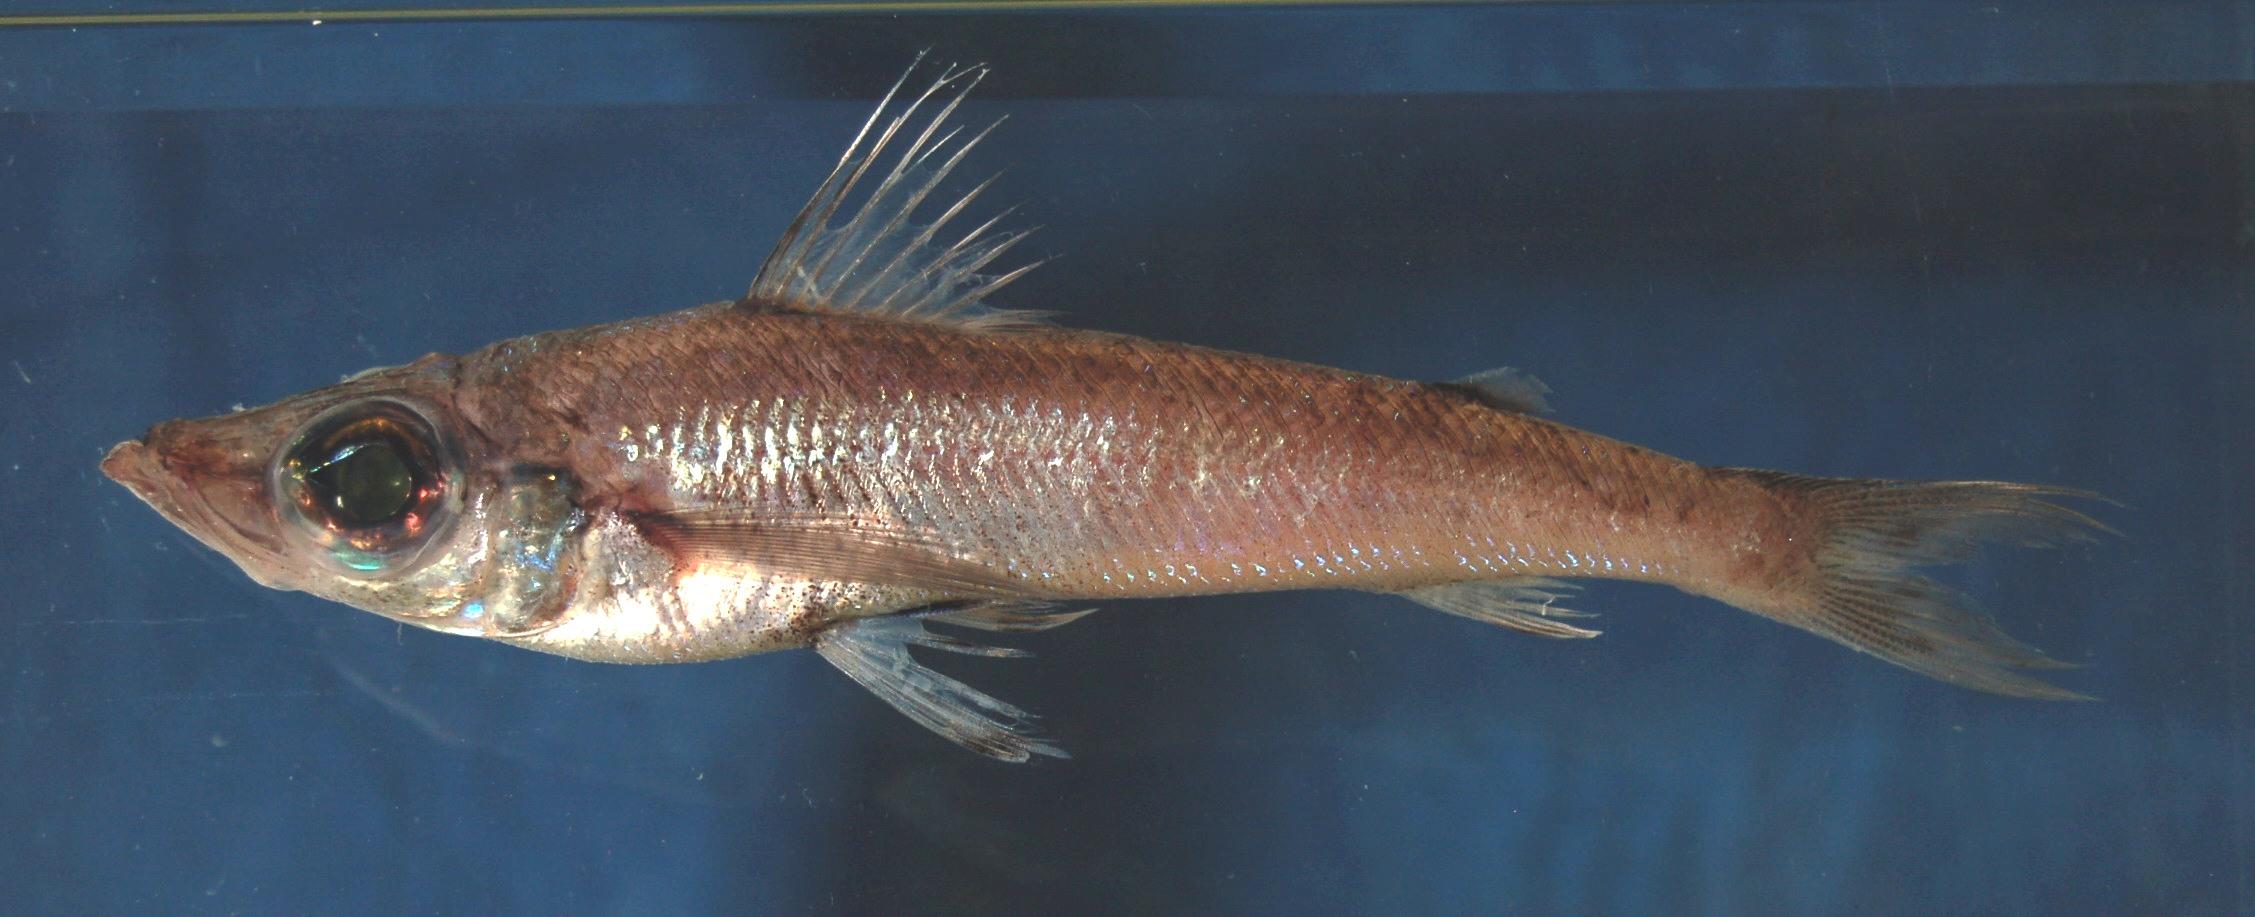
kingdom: Animalia
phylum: Chordata
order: Aulopiformes
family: Chlorophthalmidae
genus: Chlorophthalmus
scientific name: Chlorophthalmus agassizi
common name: Shortnose greeneye
